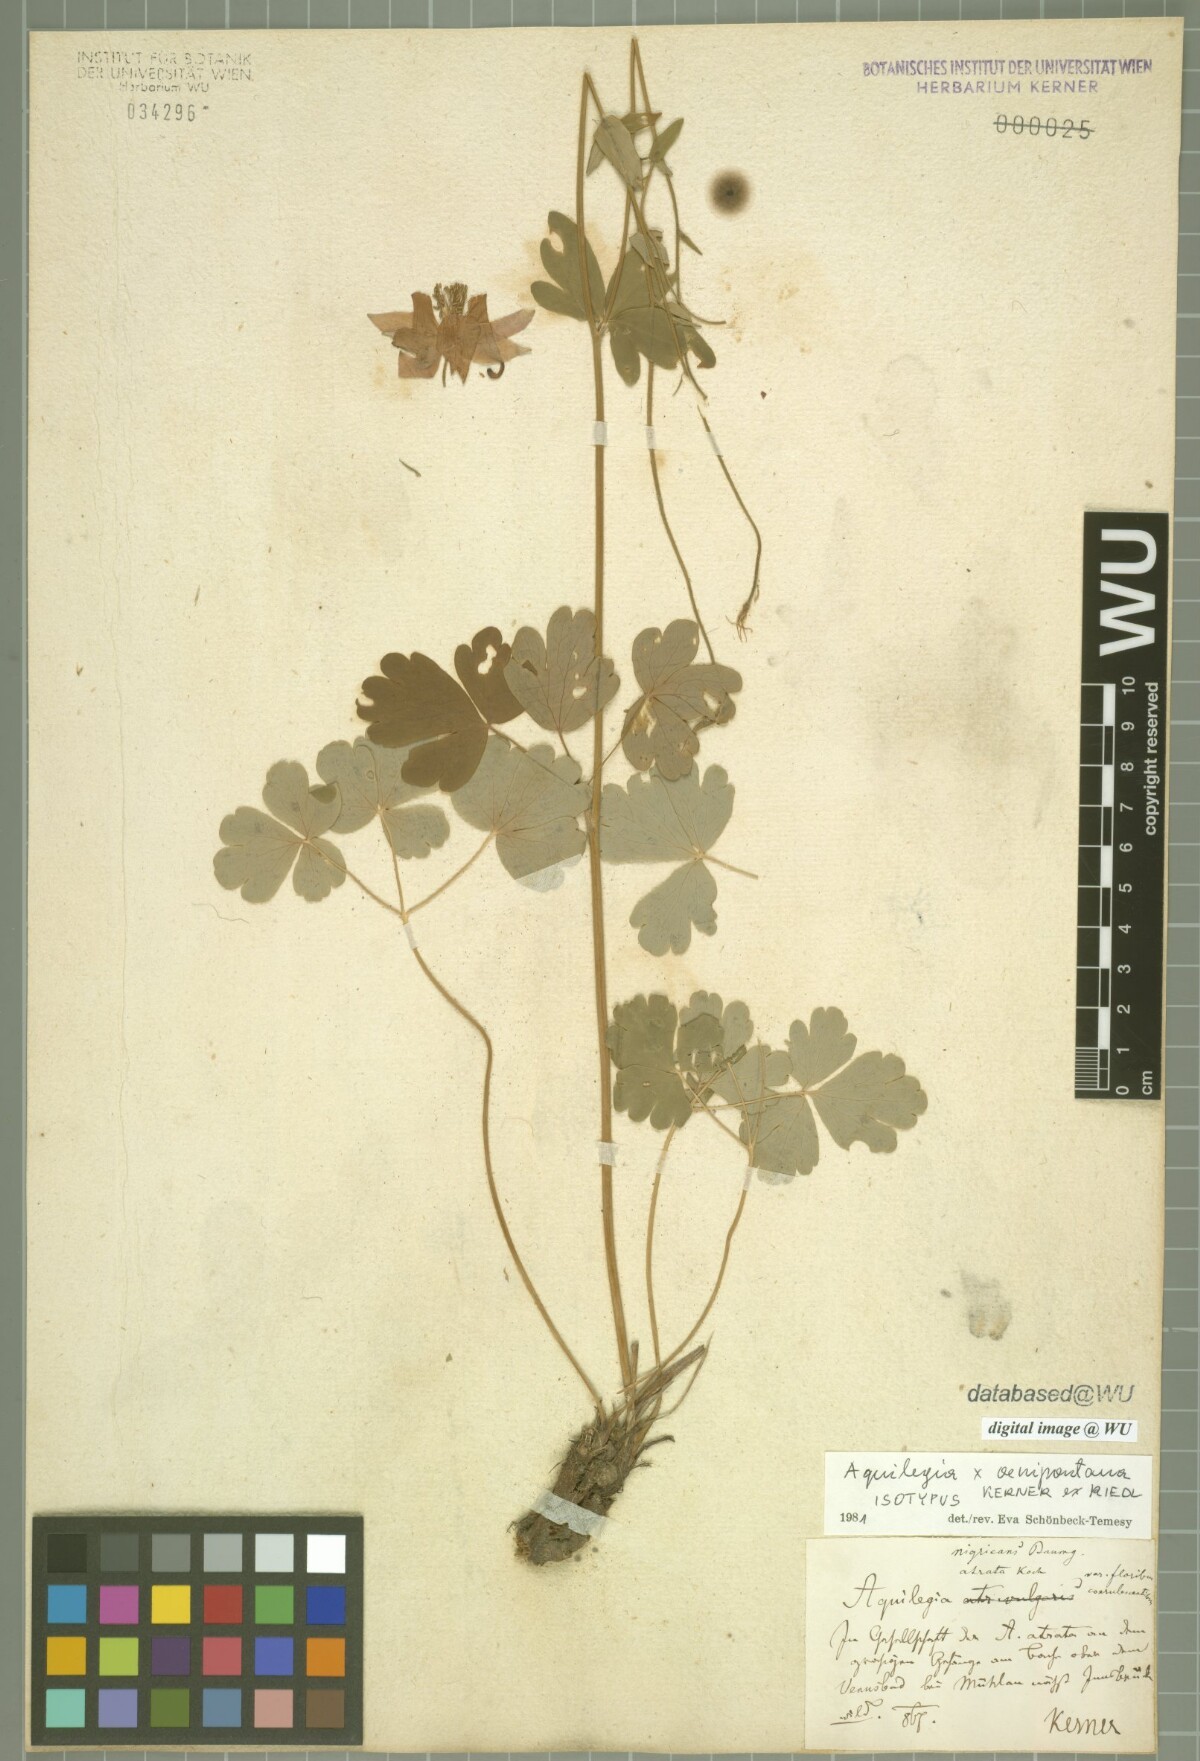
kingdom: Plantae
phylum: Tracheophyta
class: Magnoliopsida
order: Ranunculales
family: Ranunculaceae
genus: Aquilegia
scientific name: Aquilegia oenipontana
